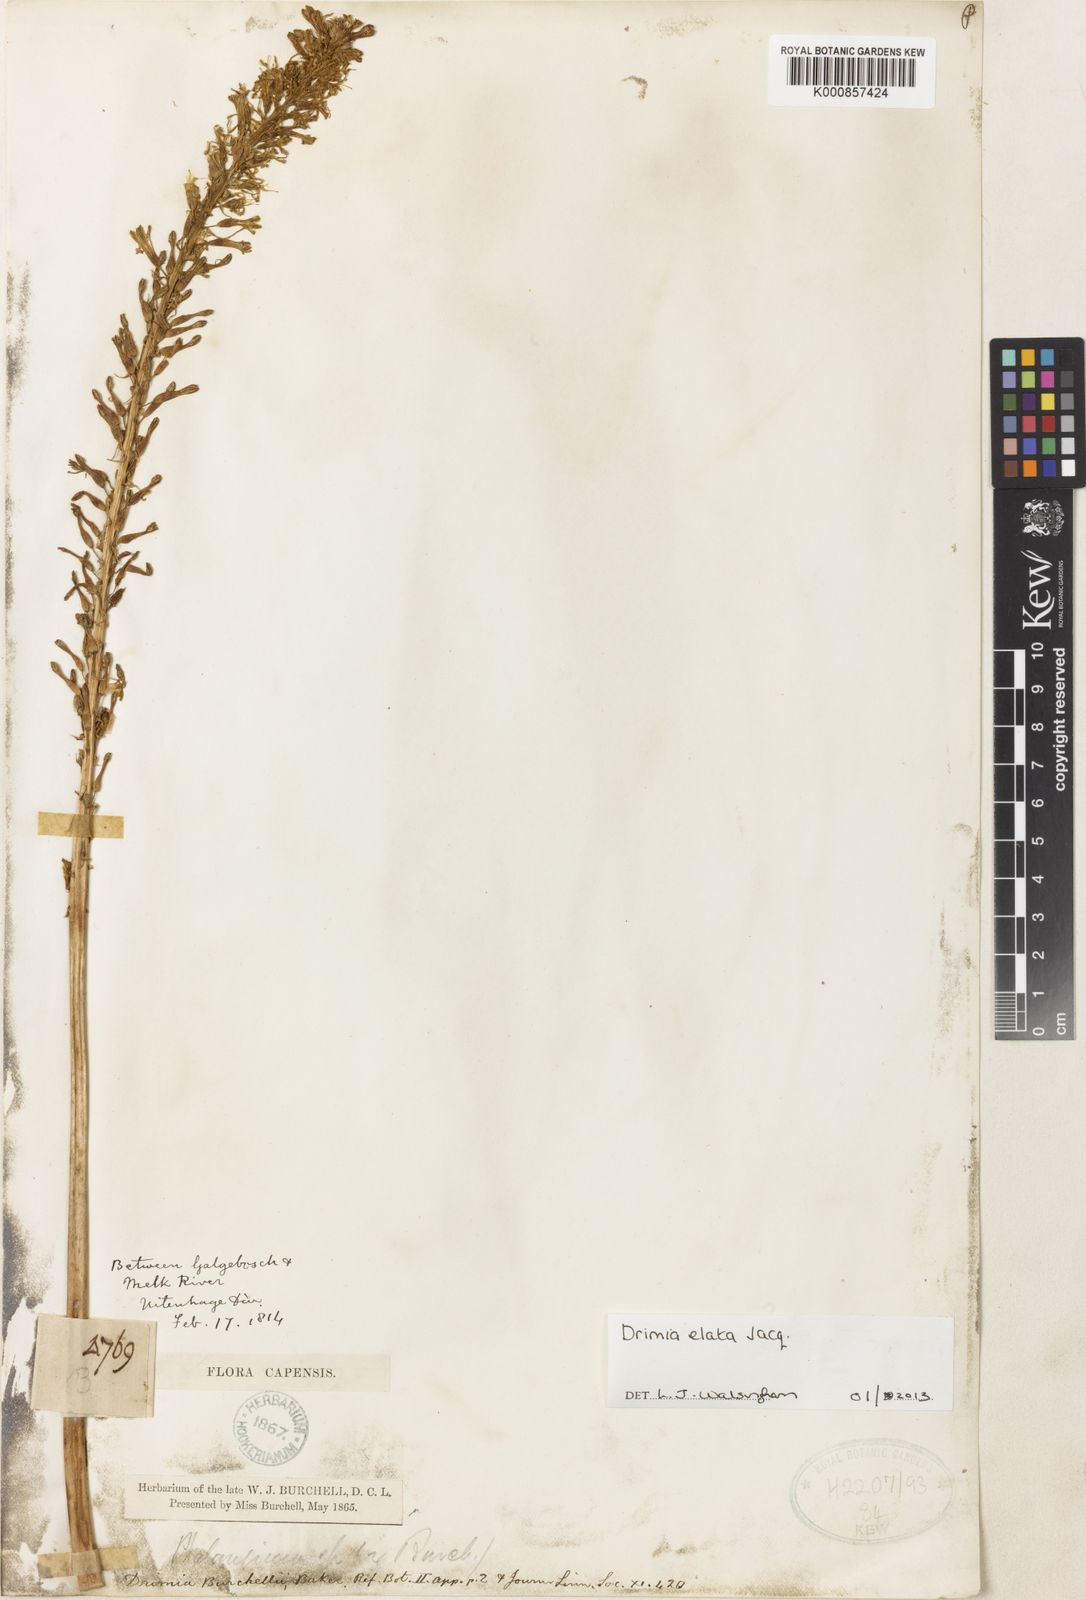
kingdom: Plantae
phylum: Tracheophyta
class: Liliopsida
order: Asparagales
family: Asparagaceae
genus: Drimia
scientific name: Drimia
